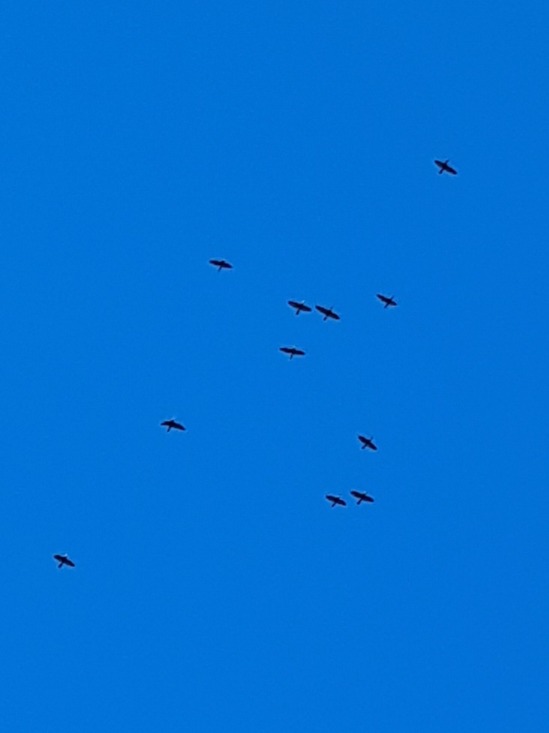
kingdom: Animalia
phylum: Chordata
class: Aves
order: Suliformes
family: Phalacrocoracidae
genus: Phalacrocorax
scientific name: Phalacrocorax carbo
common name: Skarv
